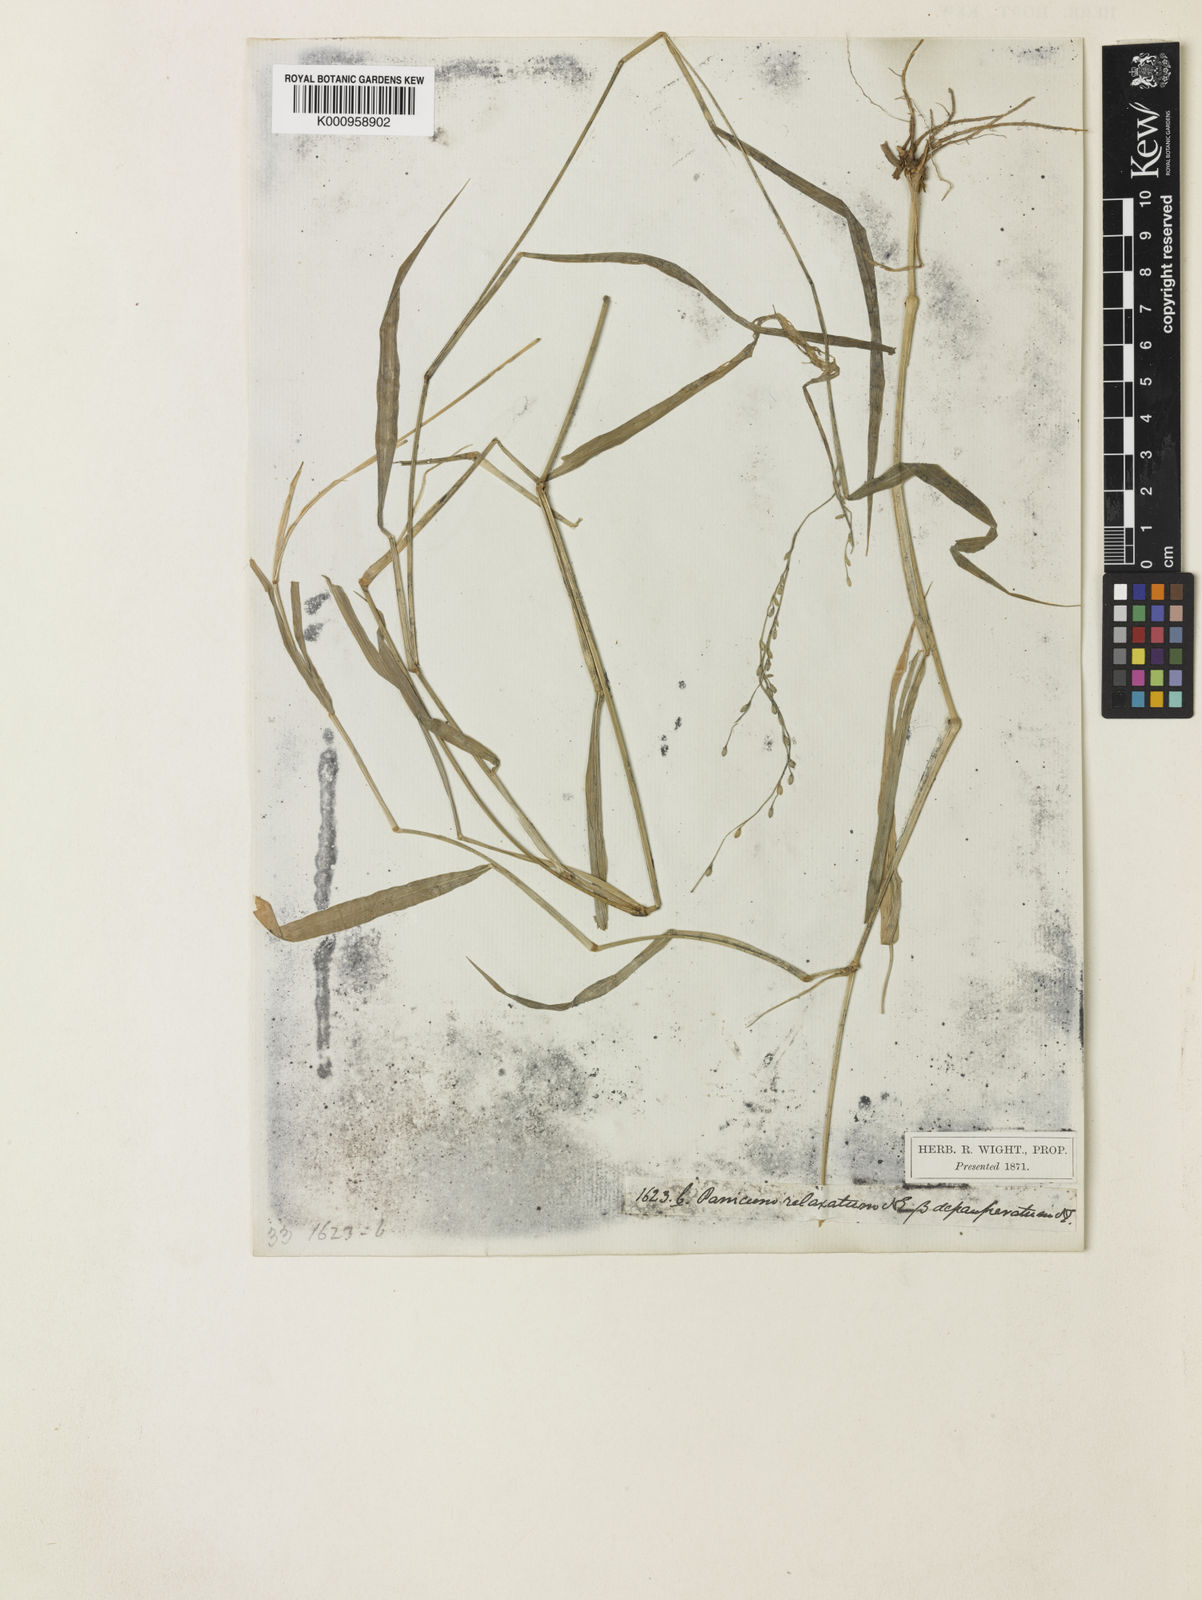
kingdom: Plantae
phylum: Tracheophyta
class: Liliopsida
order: Poales
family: Poaceae
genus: Urochloa
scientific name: Urochloa Brachiaria remota
